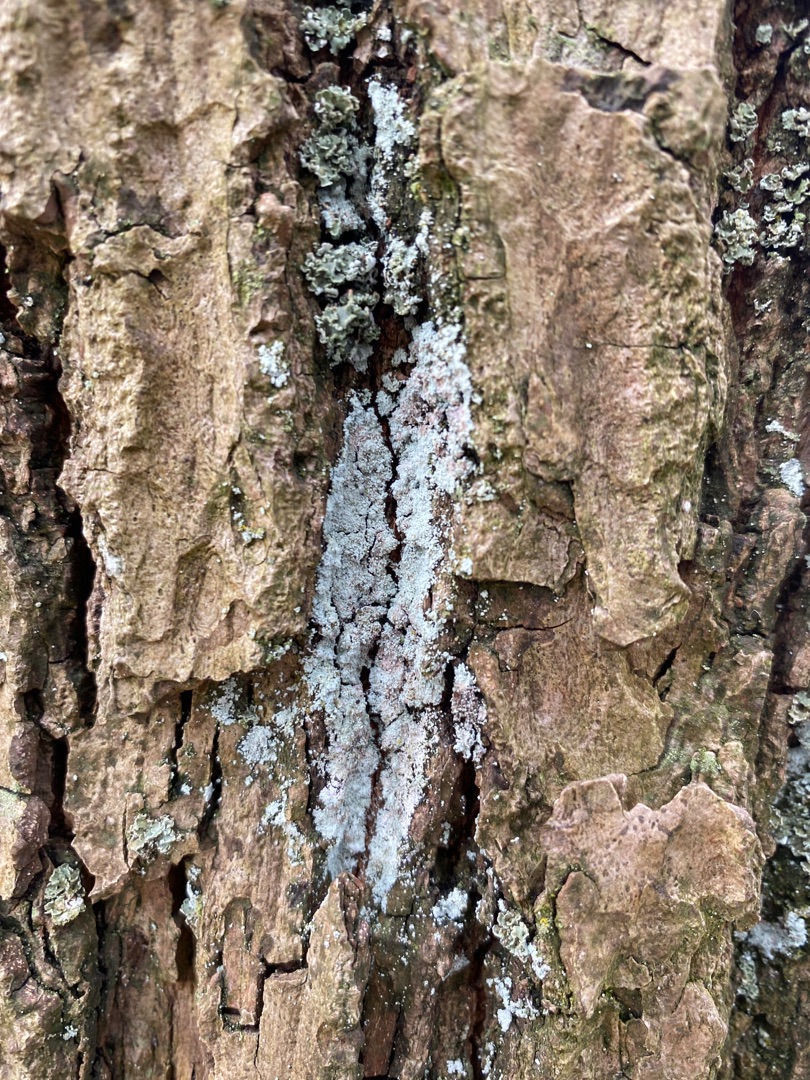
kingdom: Fungi
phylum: Ascomycota
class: Lecanoromycetes
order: Lecanorales
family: Stereocaulaceae
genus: Lepraria
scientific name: Lepraria
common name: Støvlav
